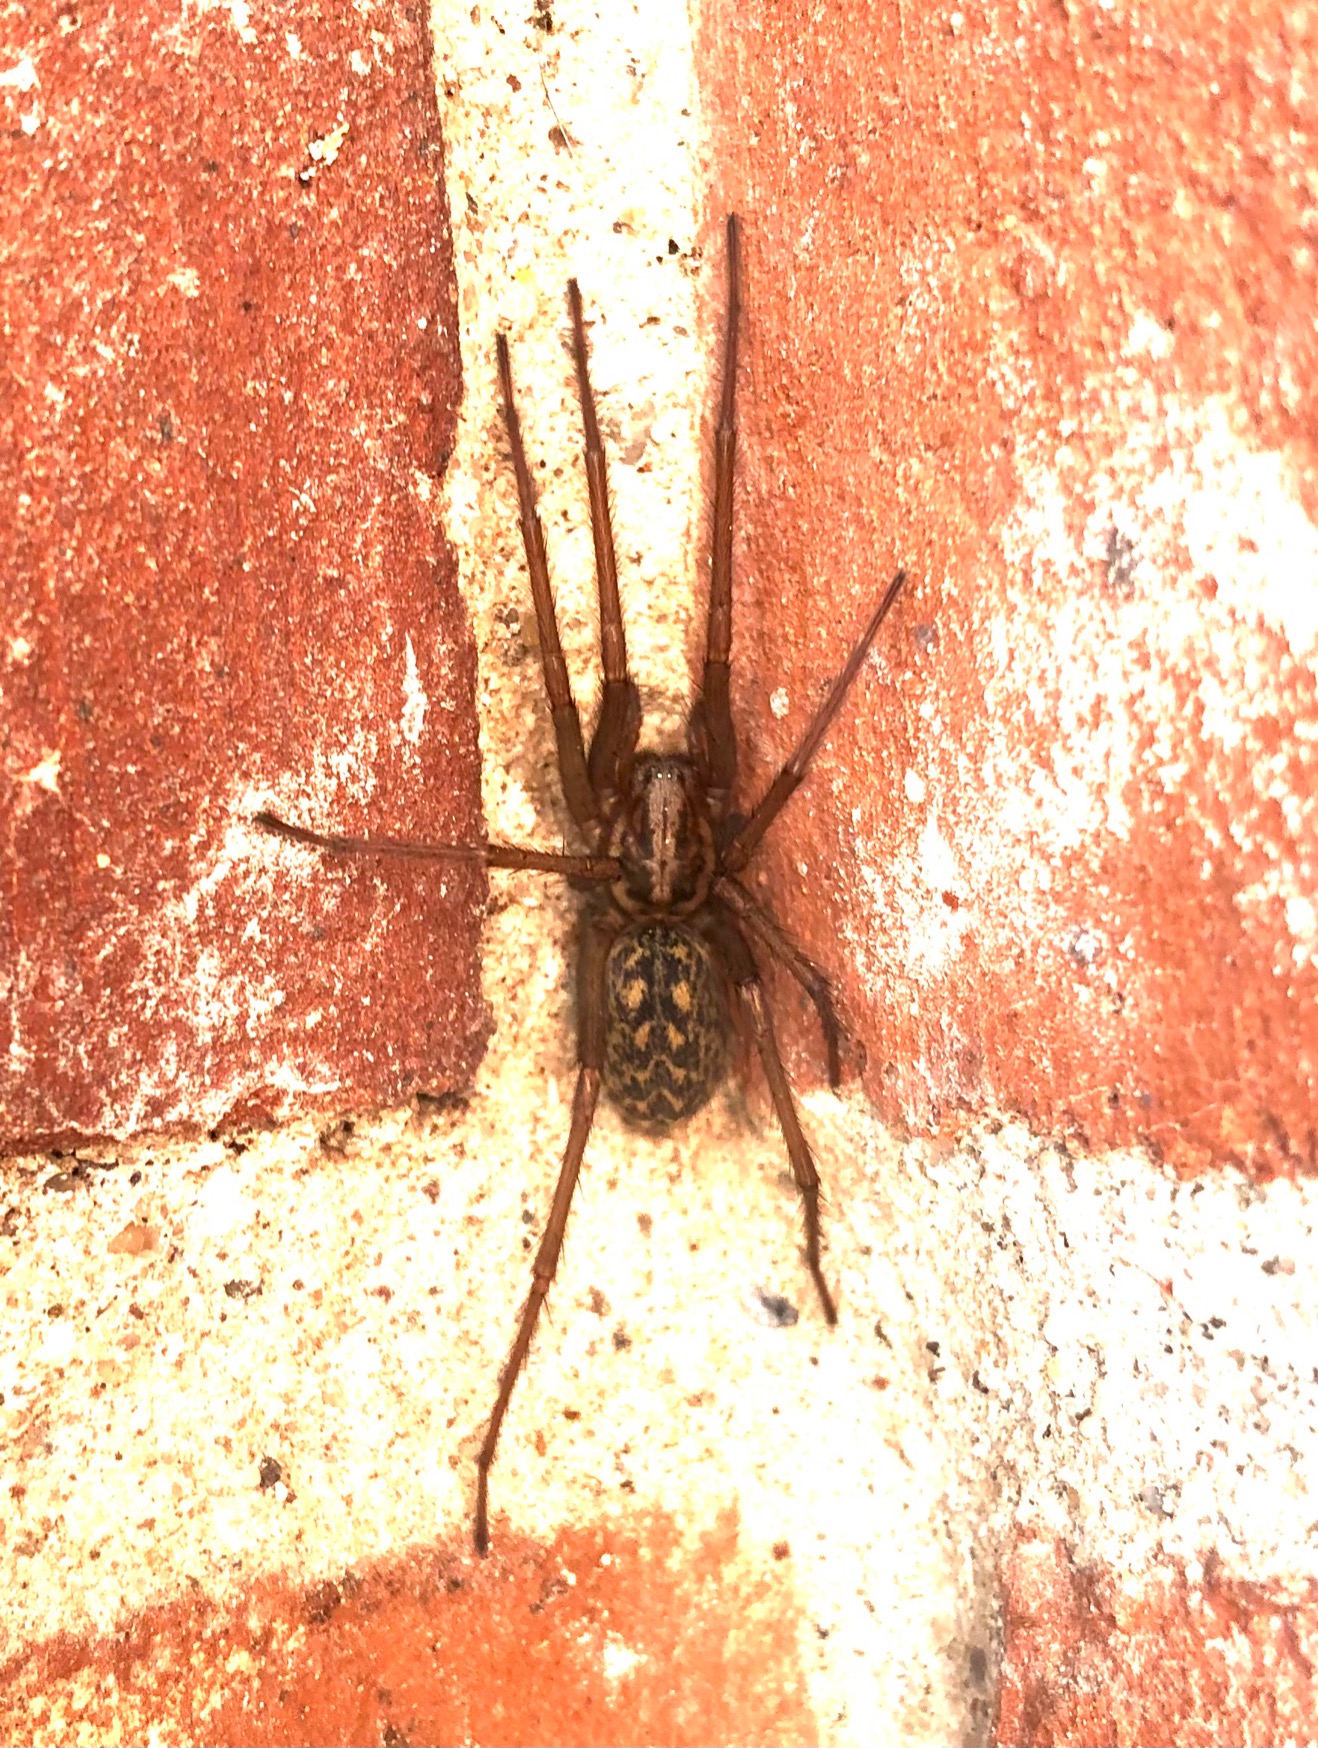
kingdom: Animalia
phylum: Arthropoda
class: Arachnida
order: Araneae
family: Agelenidae
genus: Eratigena
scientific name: Eratigena atrica
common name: Stor husedderkop
